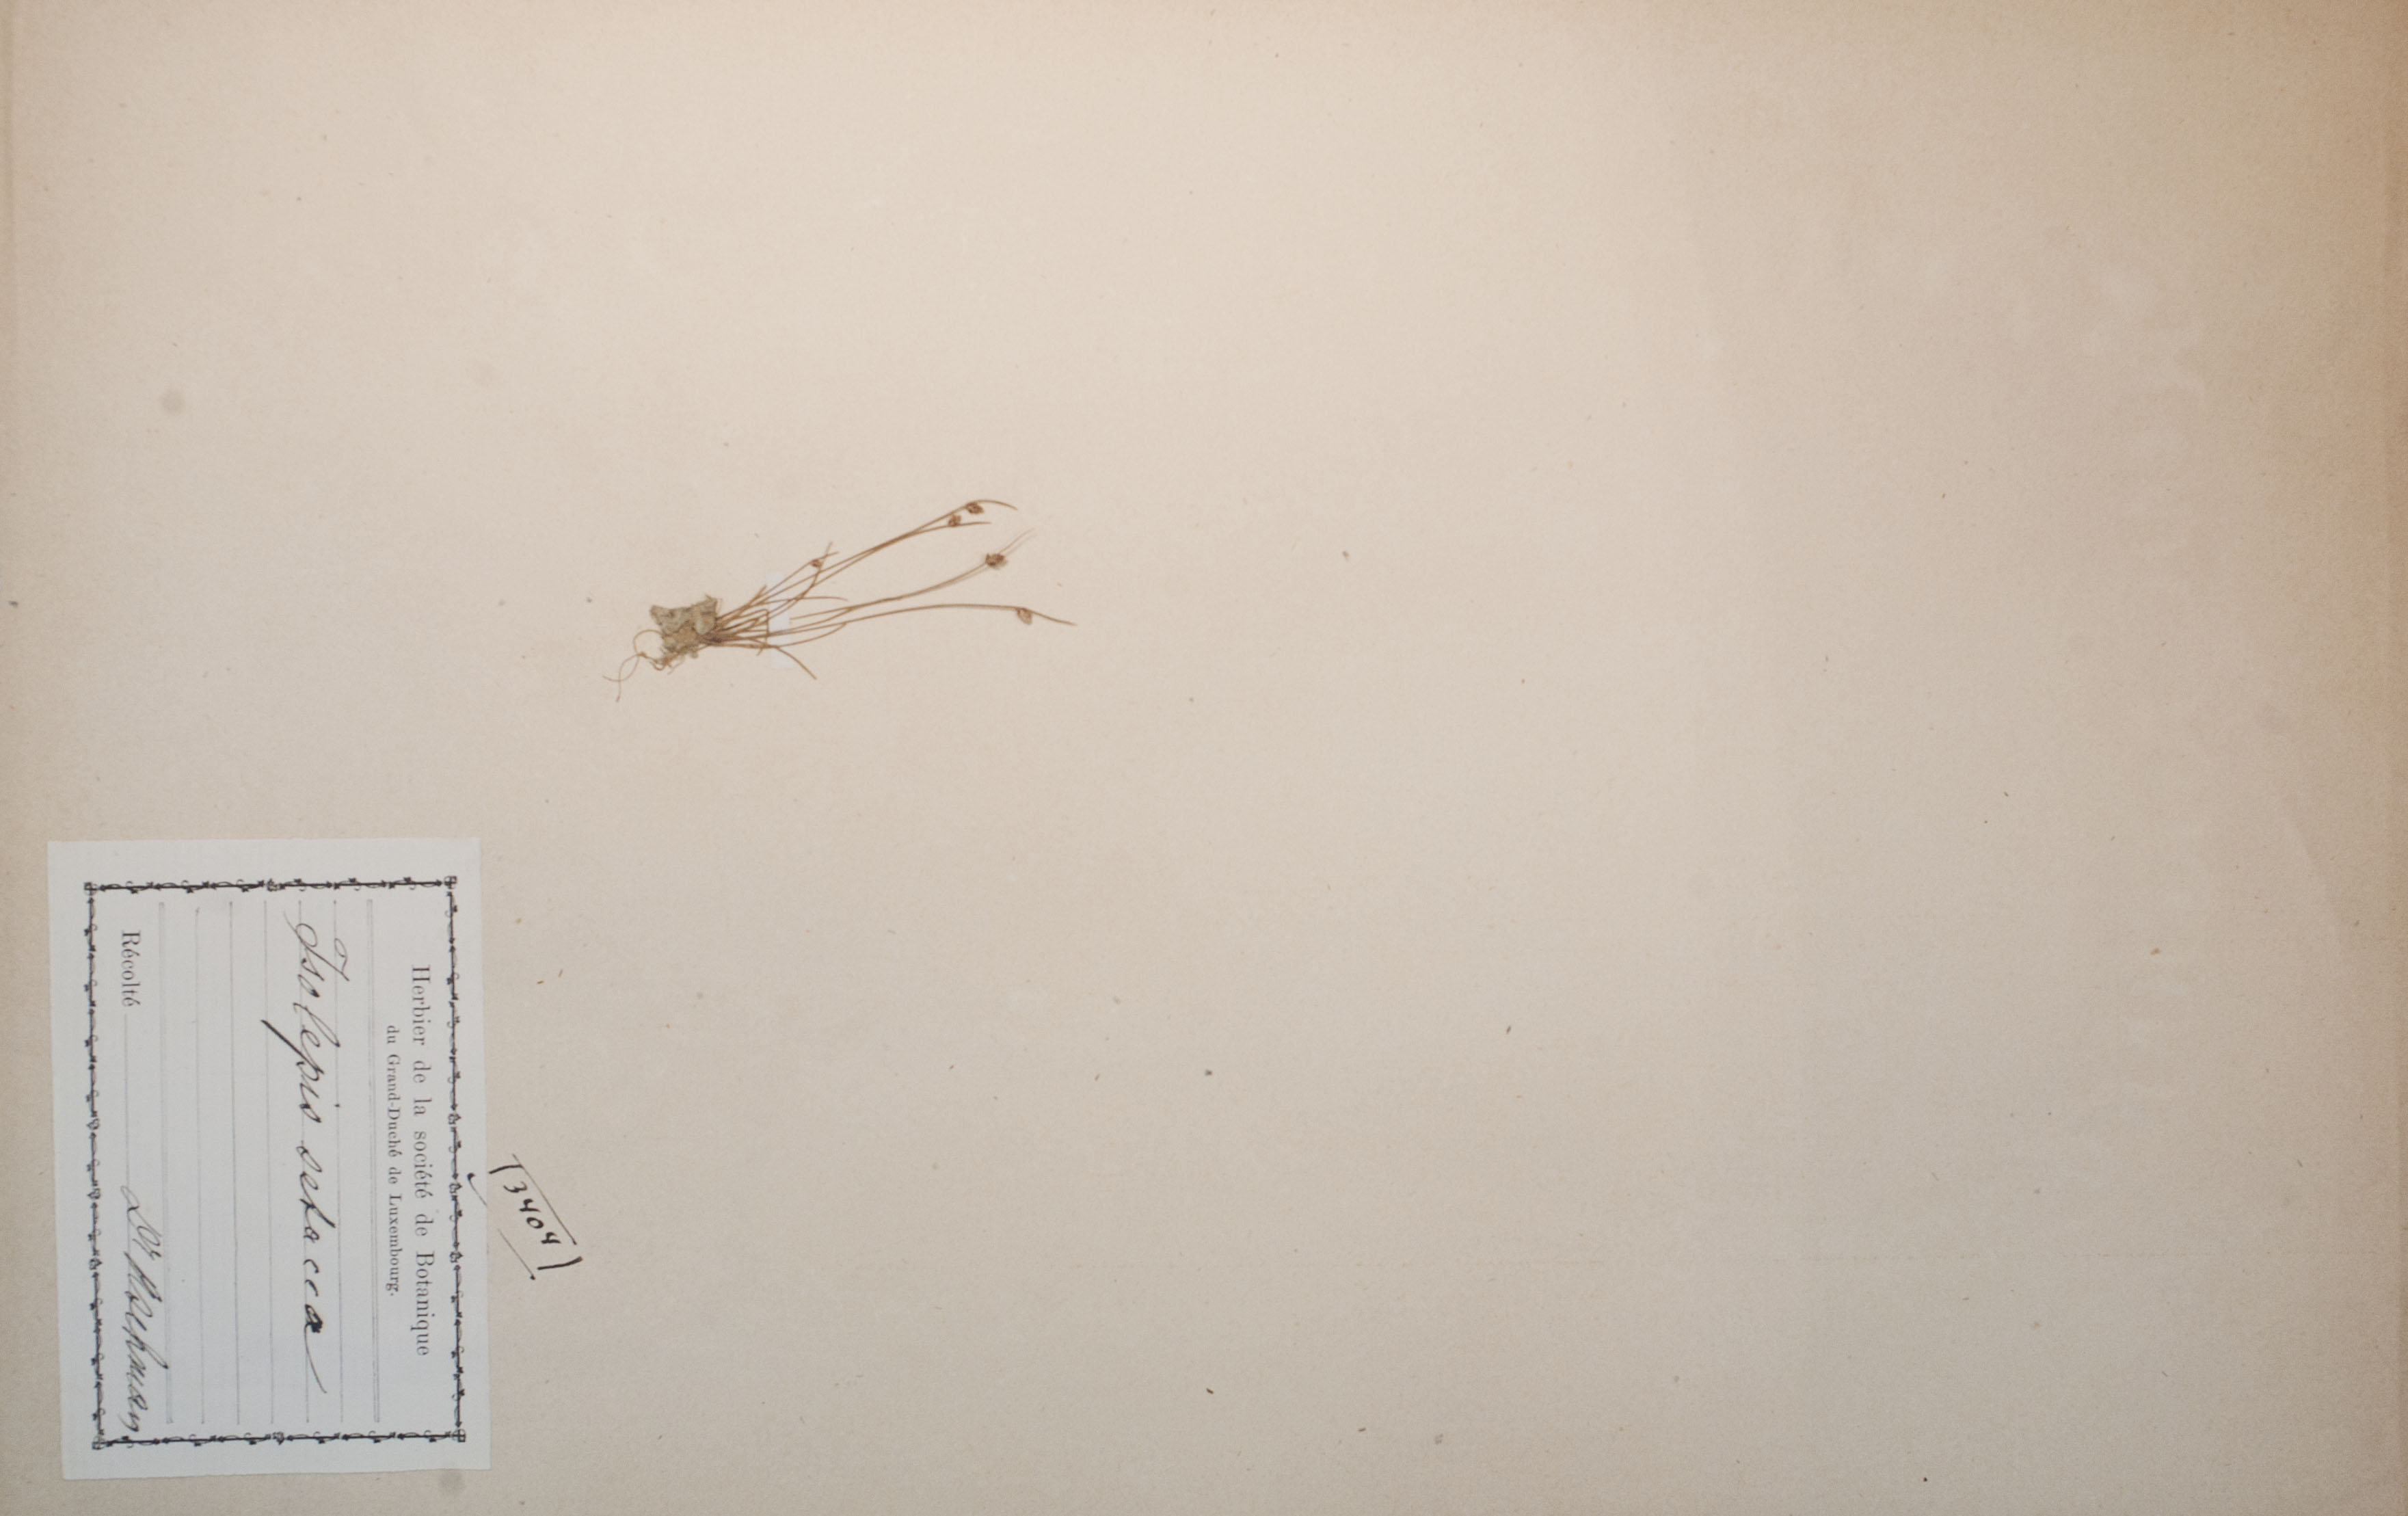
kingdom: Plantae
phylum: Tracheophyta
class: Liliopsida
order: Poales
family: Cyperaceae
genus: Isolepis
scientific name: Isolepis setacea
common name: Bristle club-rush
